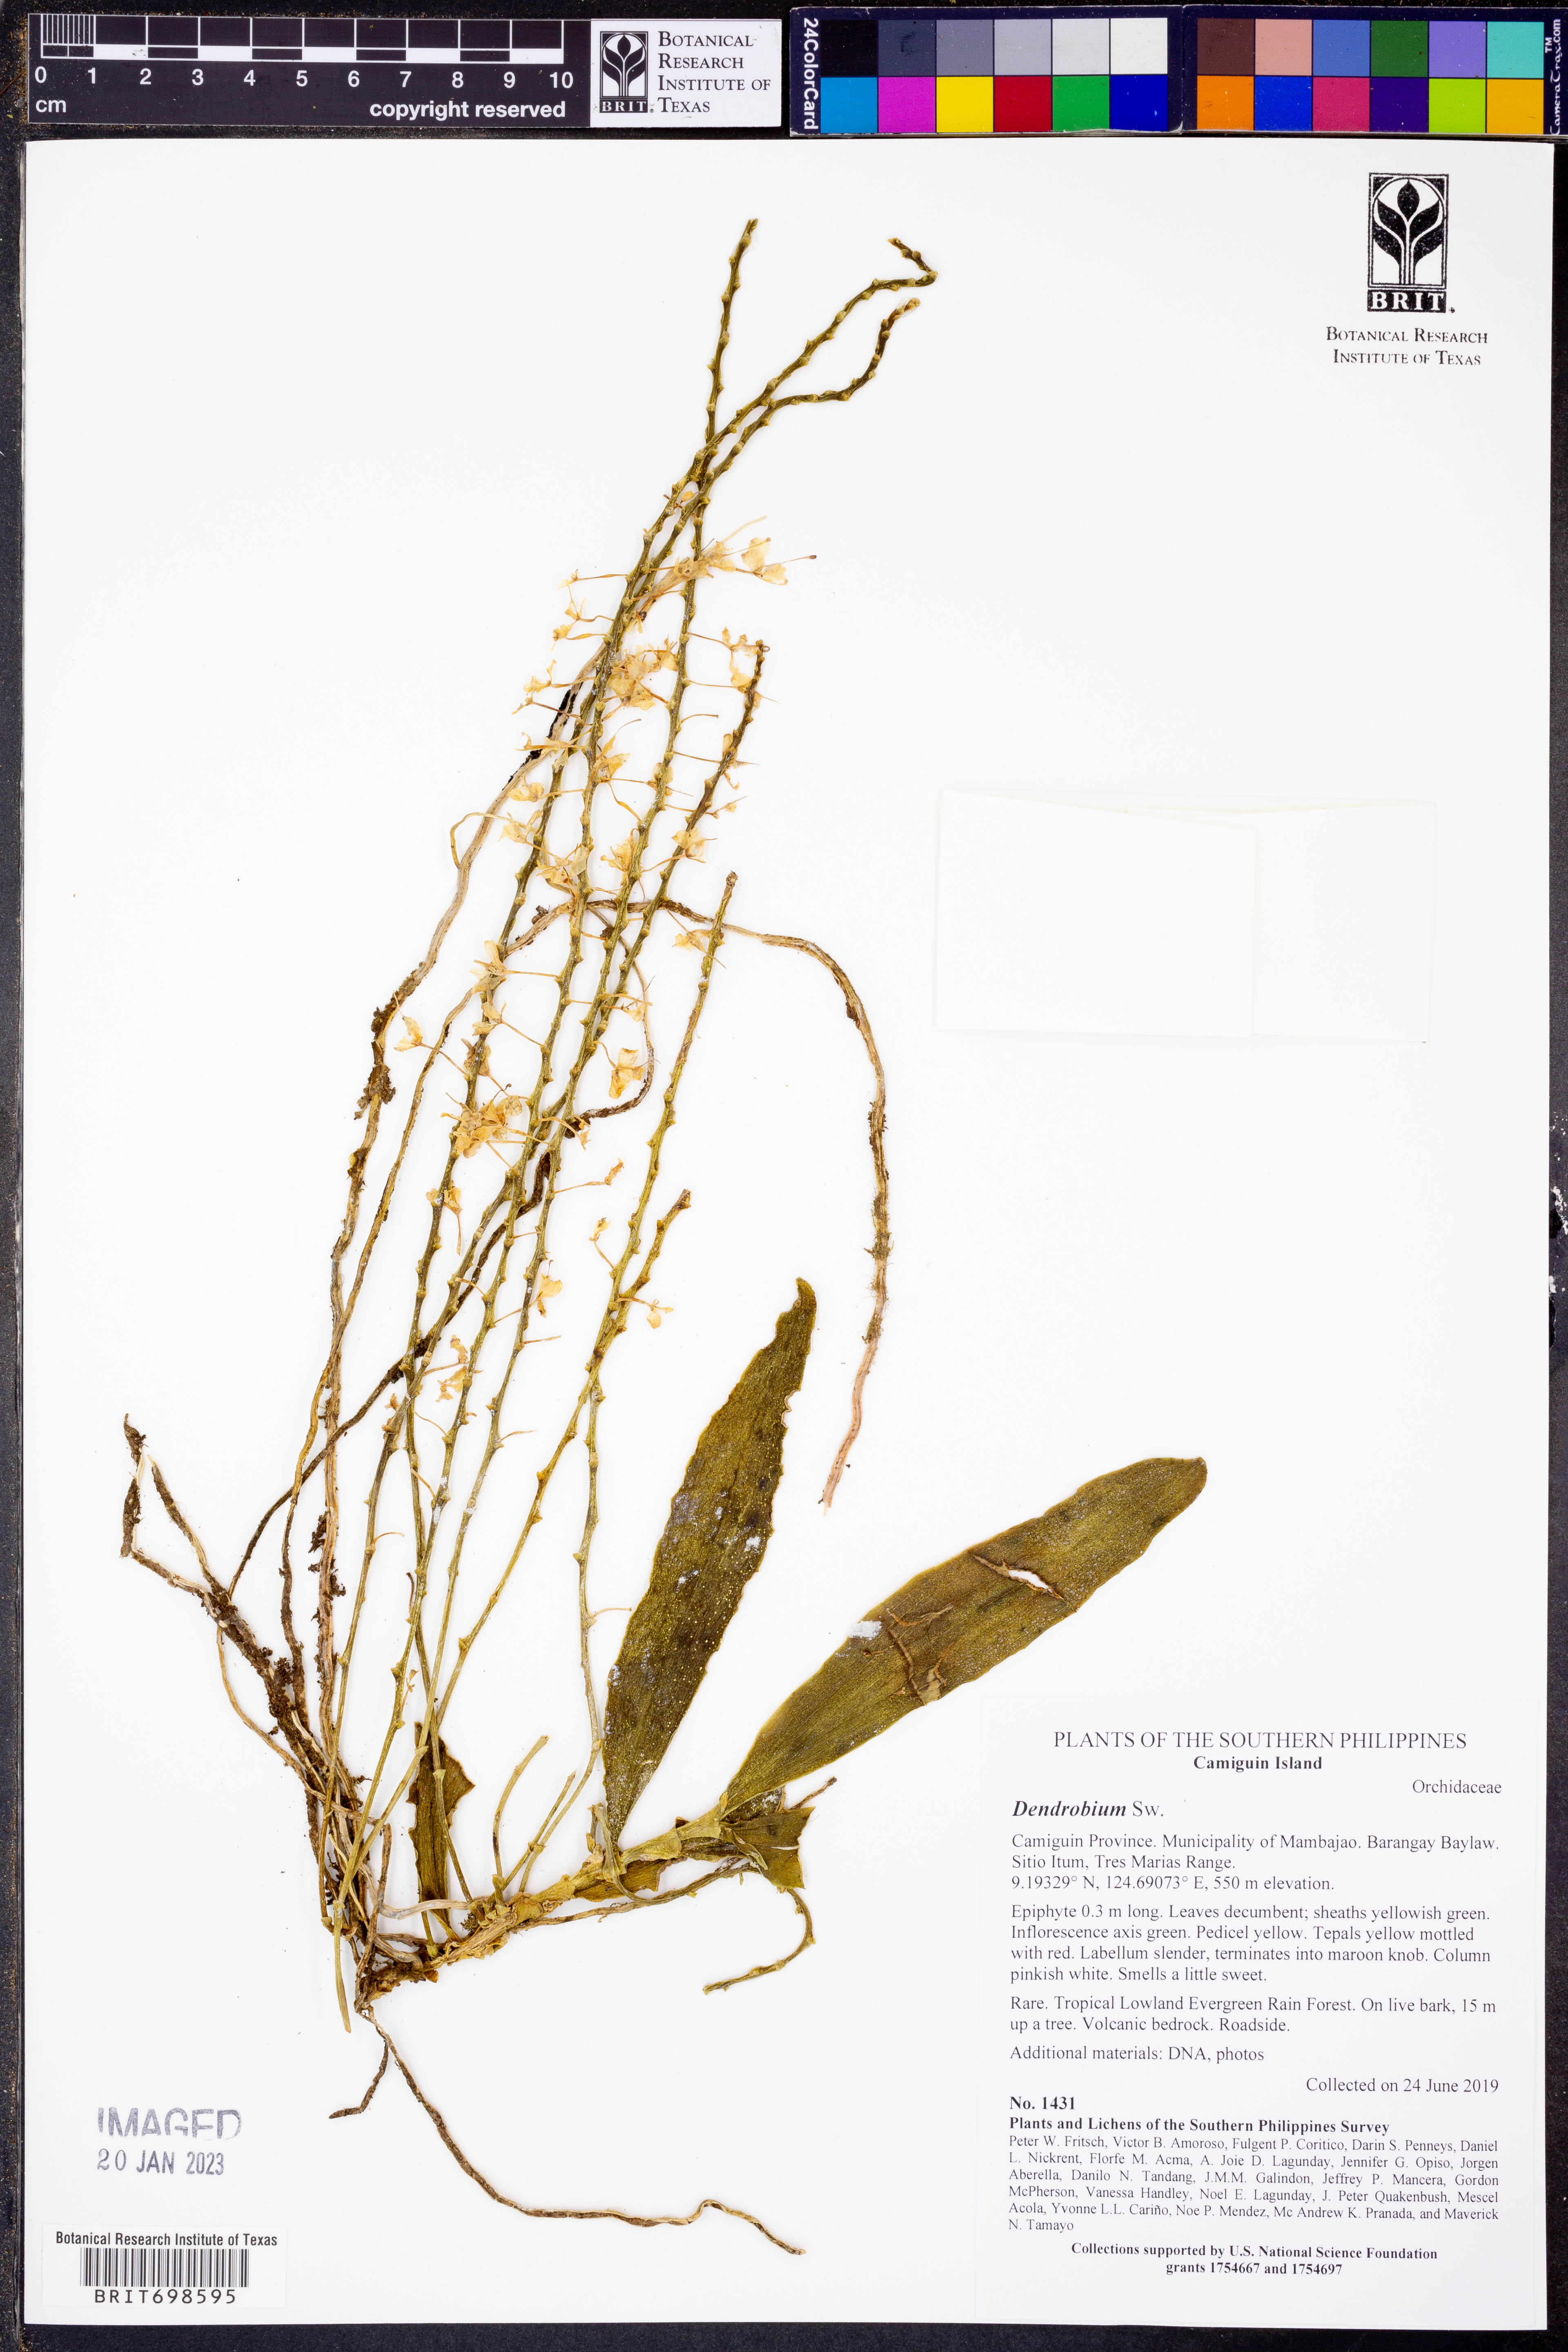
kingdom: Plantae
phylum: Tracheophyta
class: Liliopsida
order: Asparagales
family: Orchidaceae
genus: Dendrobium
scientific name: Dendrobium
